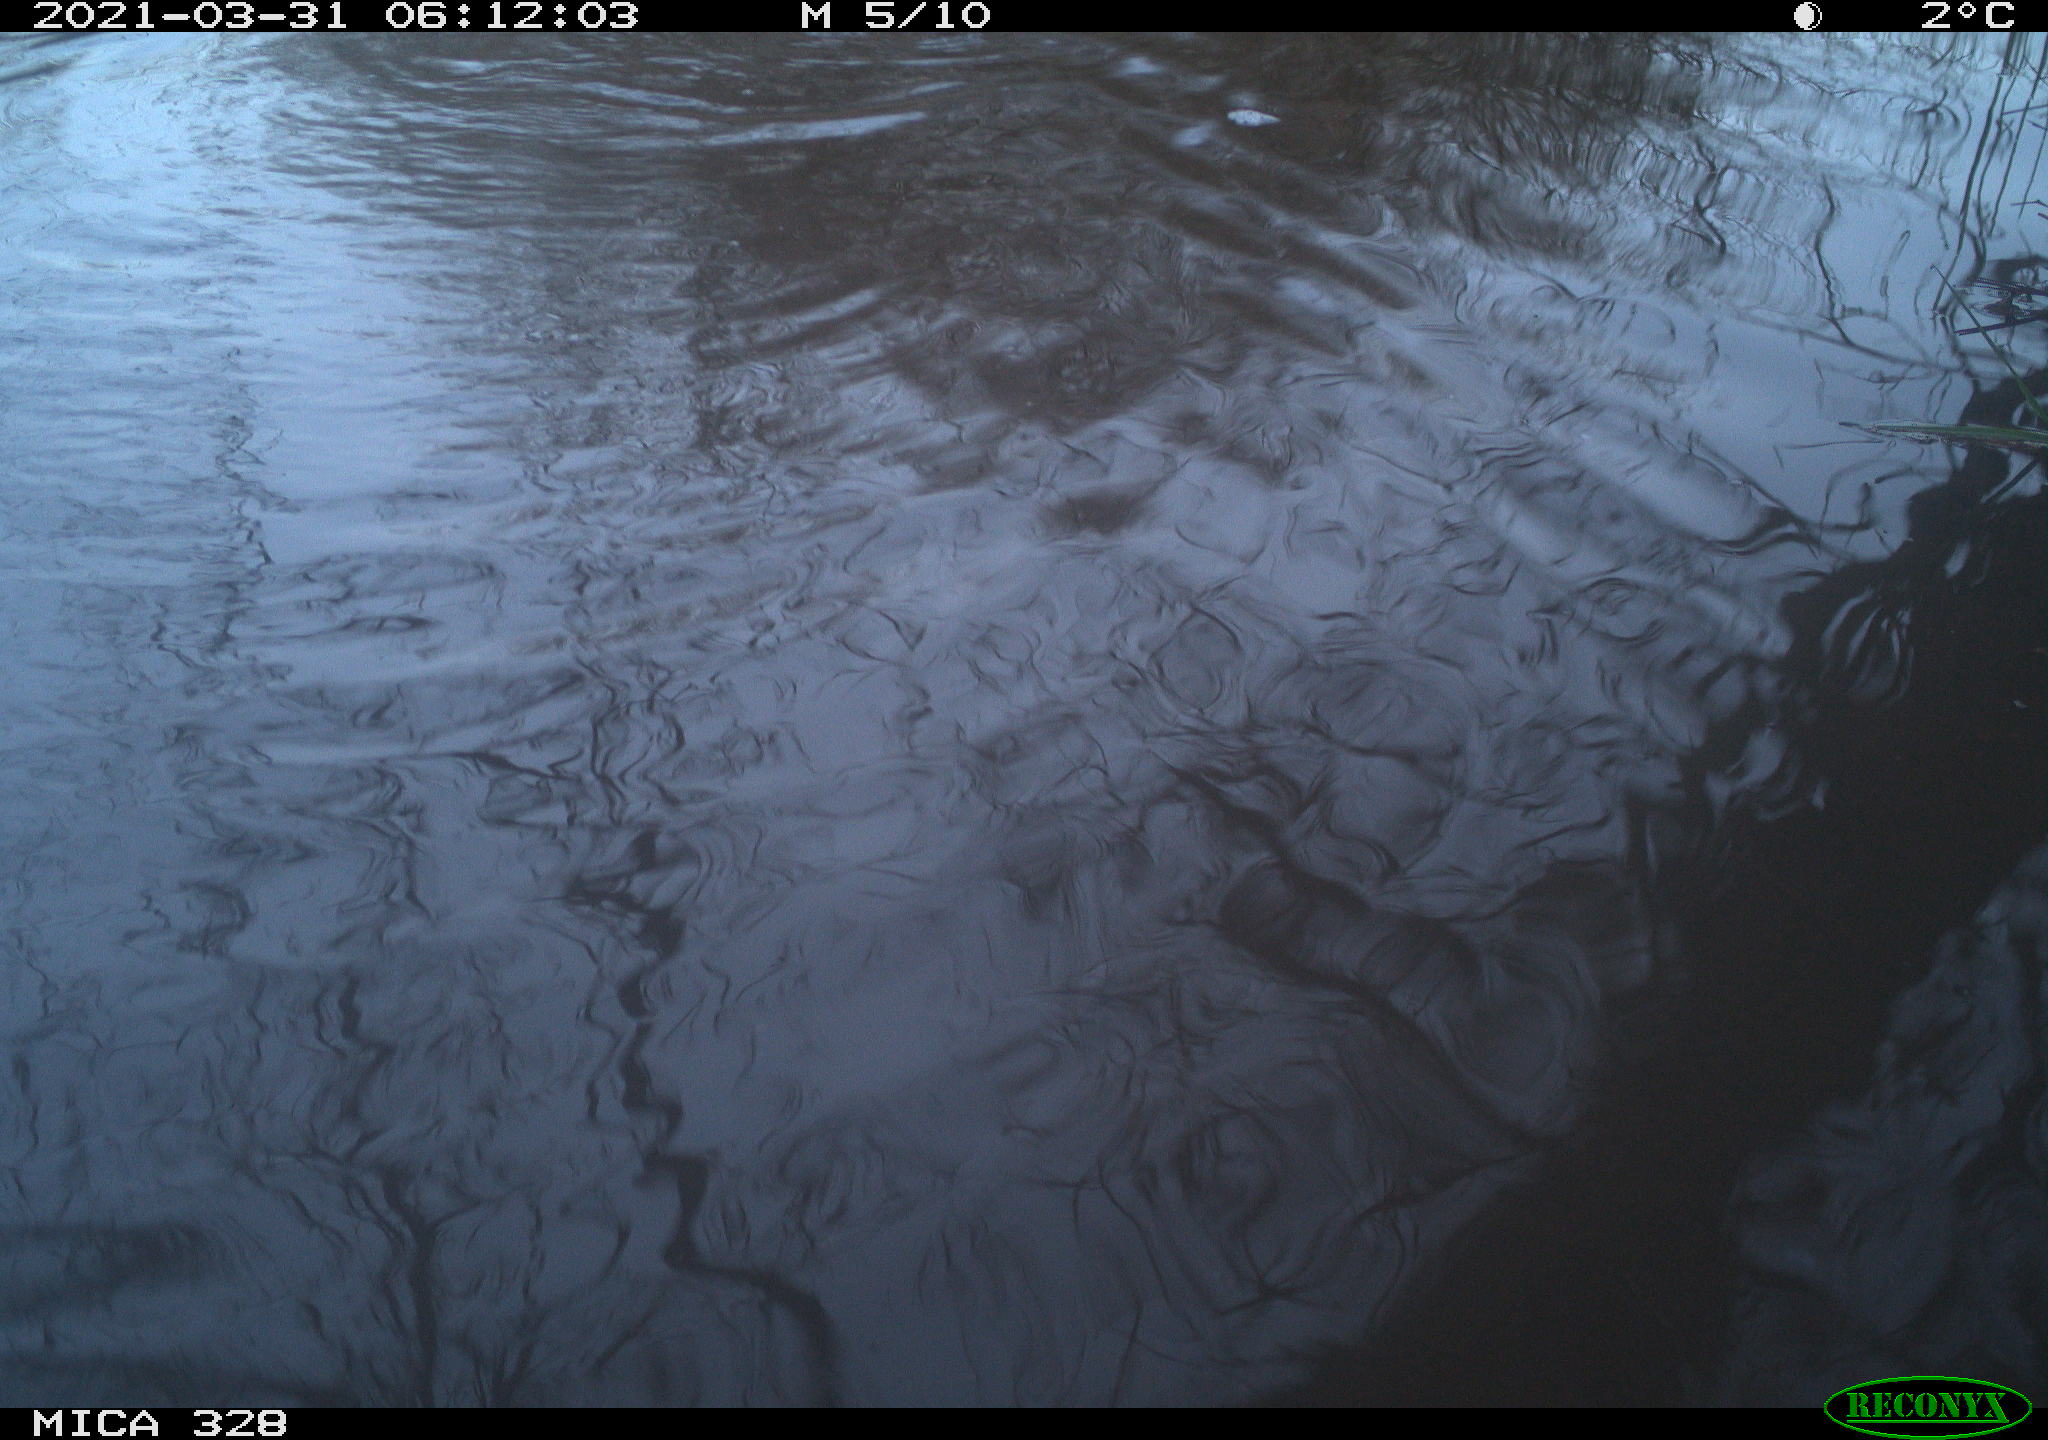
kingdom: Animalia
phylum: Chordata
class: Mammalia
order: Rodentia
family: Cricetidae
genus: Ondatra
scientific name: Ondatra zibethicus
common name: Muskrat
